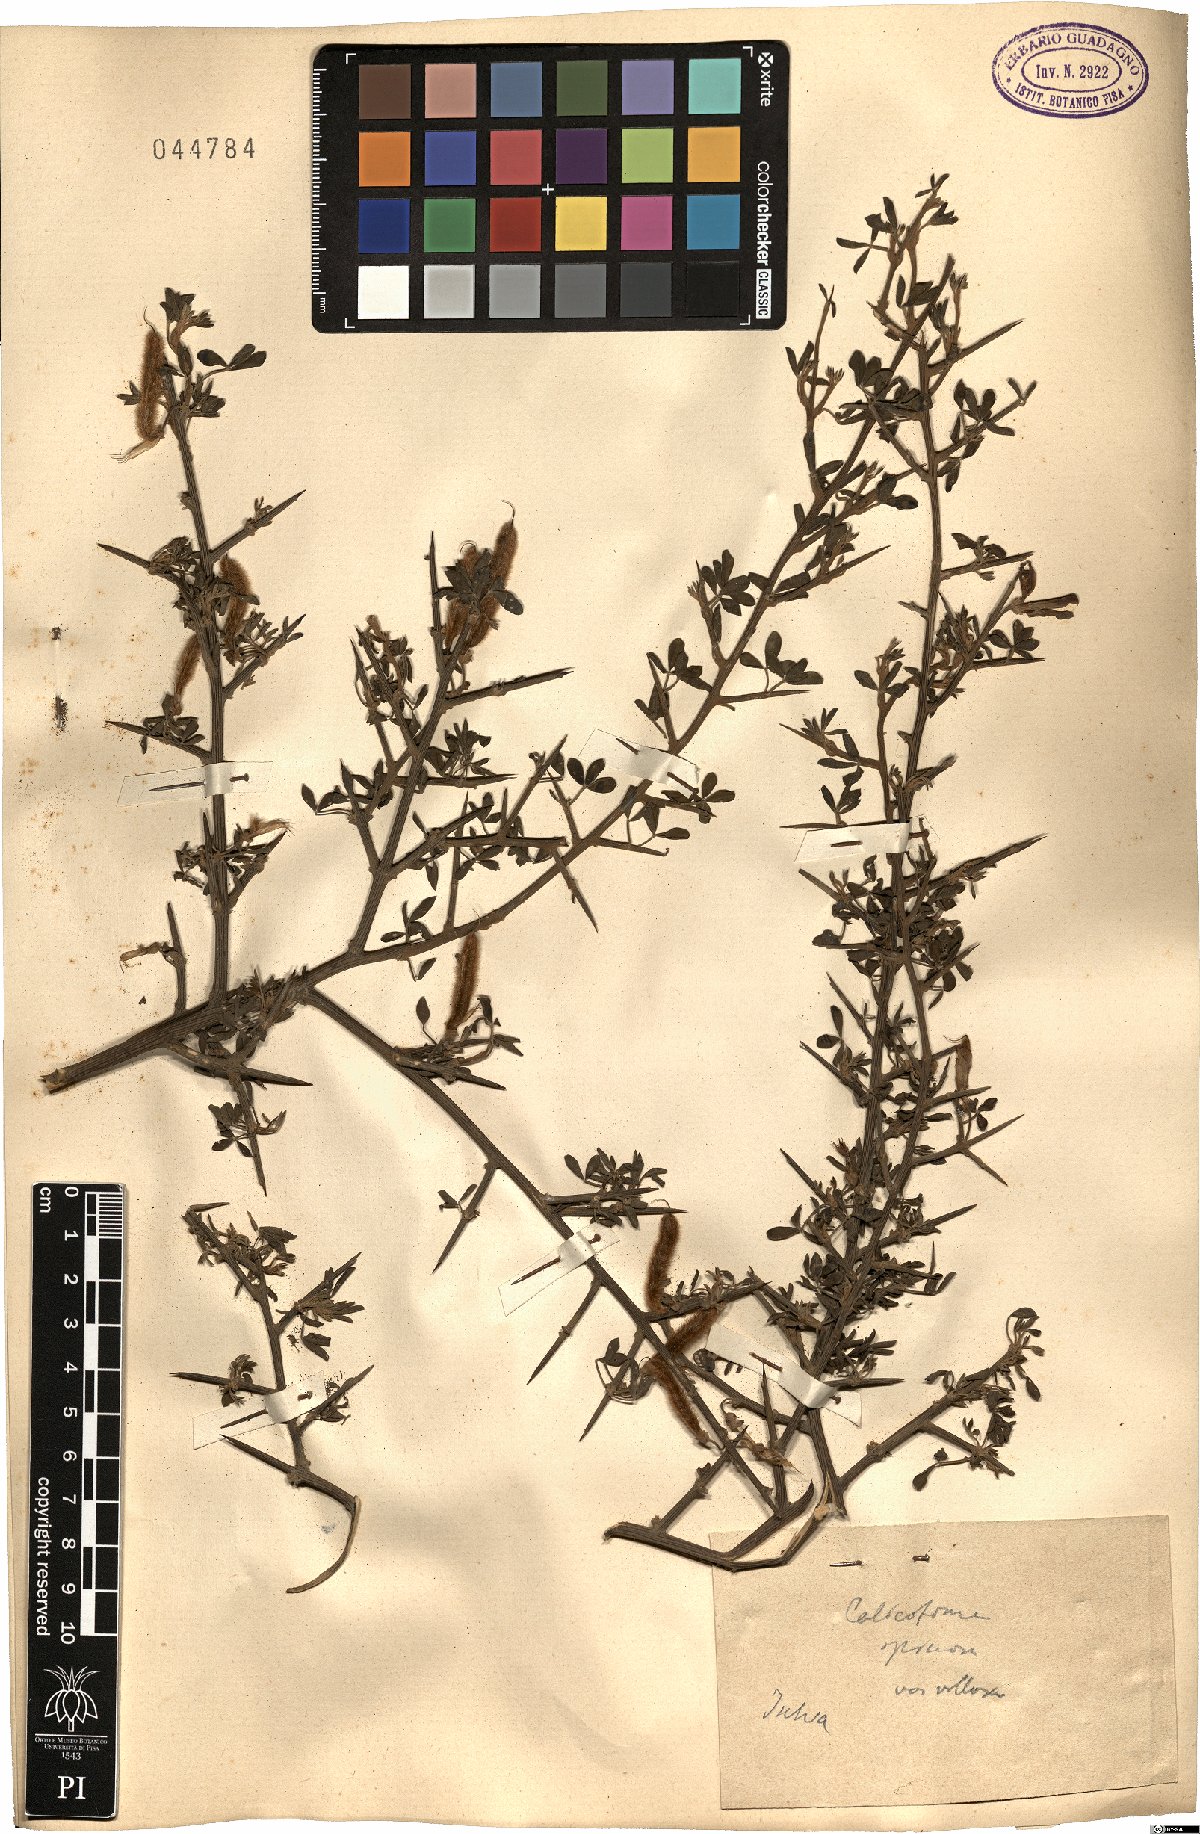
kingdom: Plantae
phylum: Tracheophyta
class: Magnoliopsida
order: Fabales
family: Fabaceae
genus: Calicotome
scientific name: Calicotome villosa
